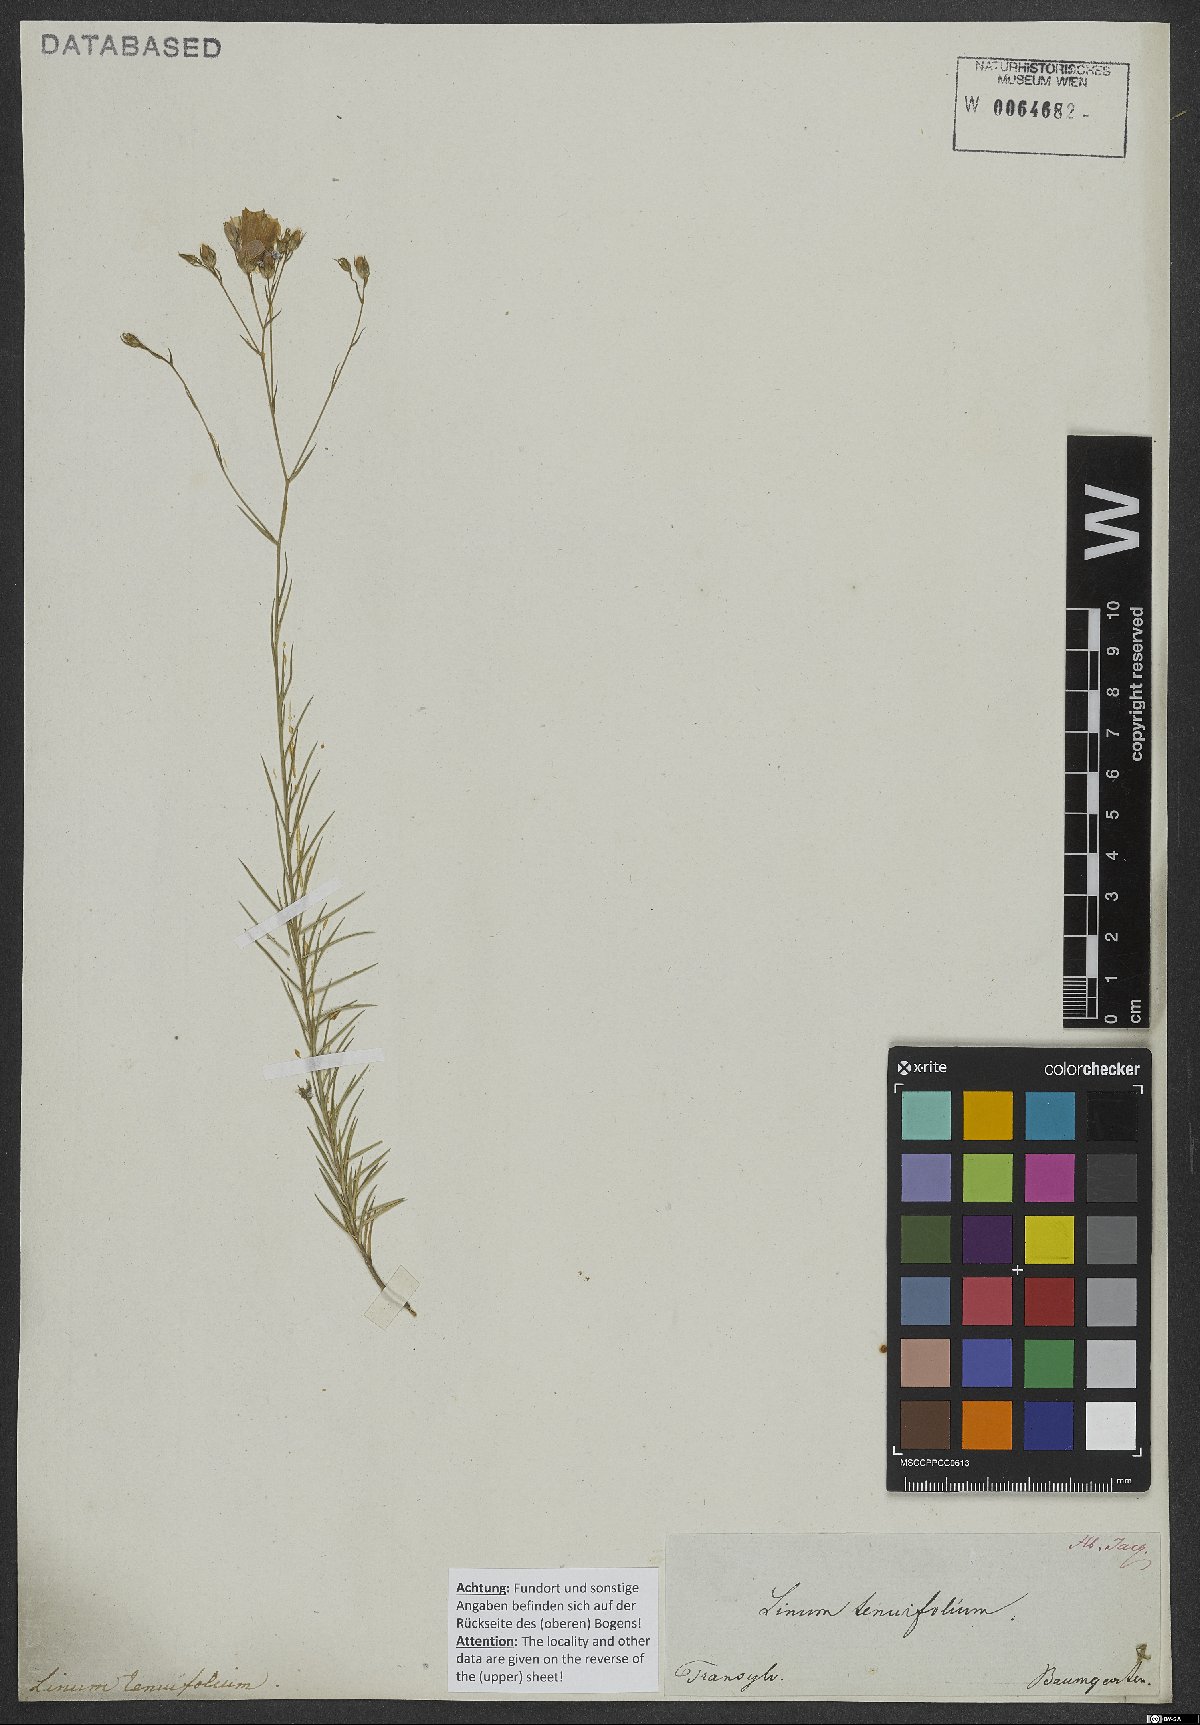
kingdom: Plantae
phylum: Tracheophyta
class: Magnoliopsida
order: Malpighiales
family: Linaceae
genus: Linum
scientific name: Linum tenuifolium
